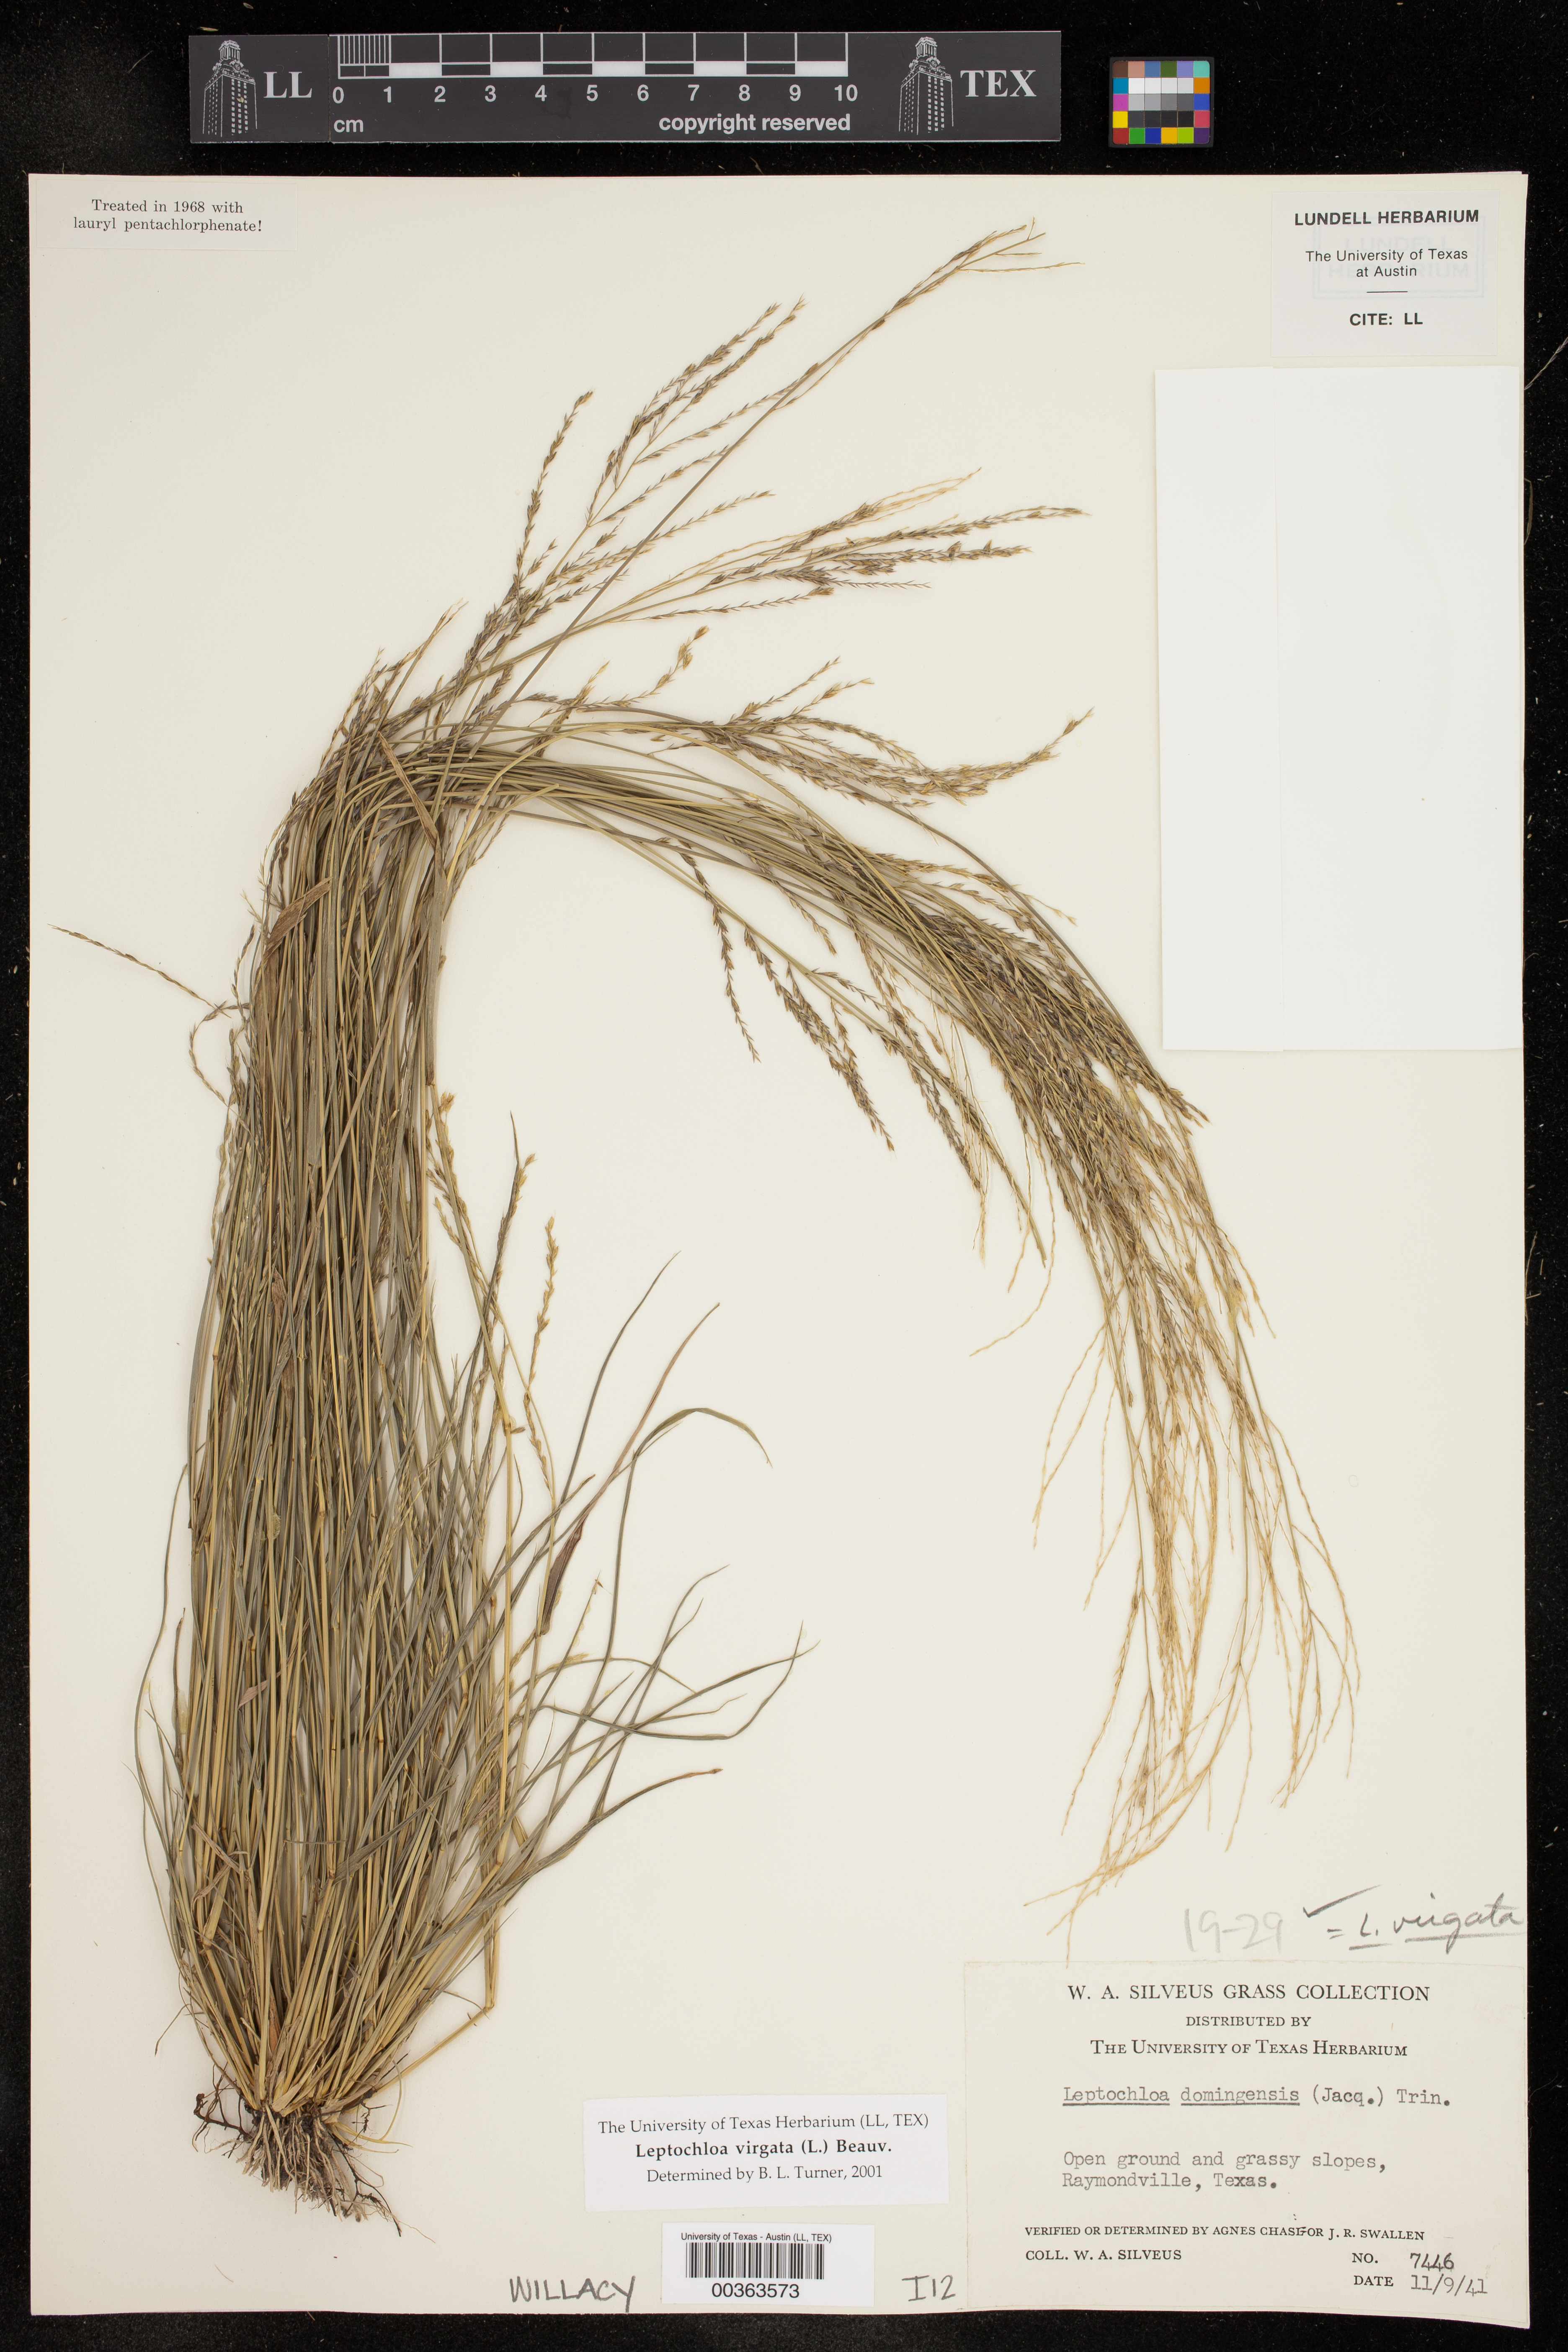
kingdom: Plantae
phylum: Tracheophyta
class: Liliopsida
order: Poales
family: Poaceae
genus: Leptochloa
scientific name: Leptochloa virgata
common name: Tropical sprangletop
